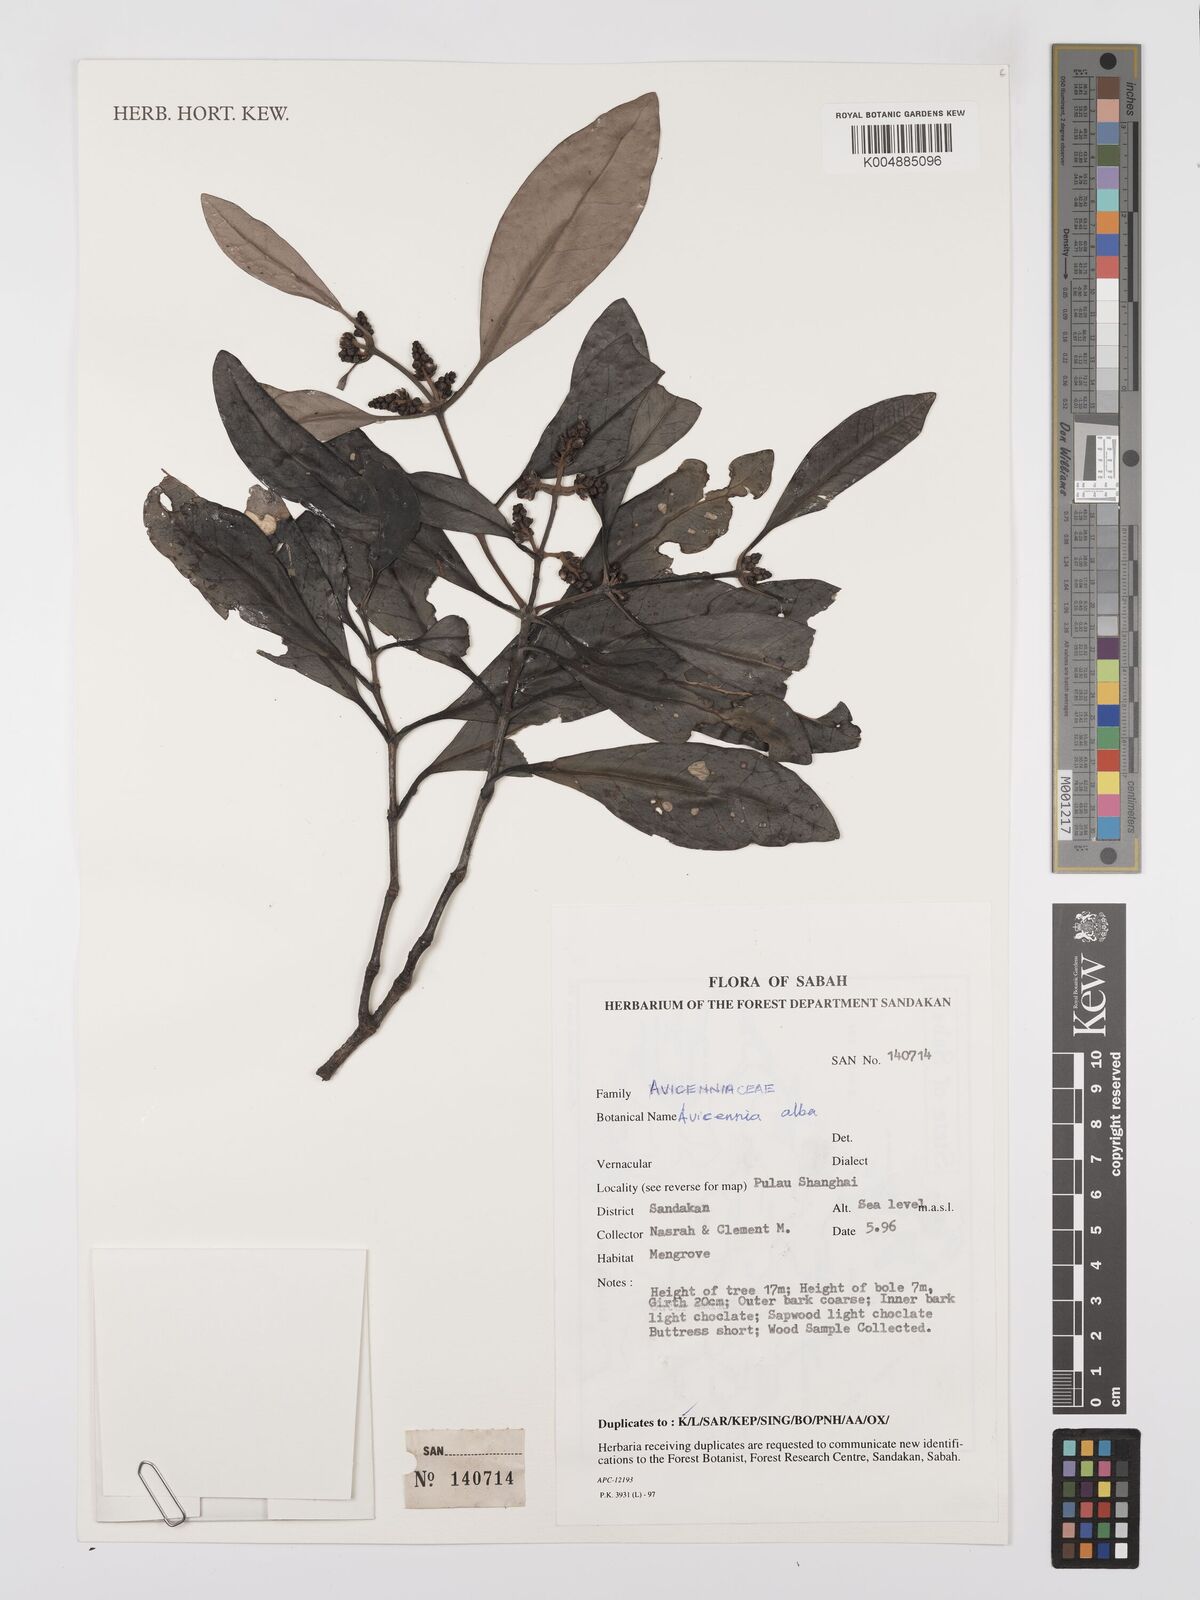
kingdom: Plantae
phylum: Tracheophyta
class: Magnoliopsida
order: Lamiales
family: Acanthaceae
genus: Avicennia
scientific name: Avicennia alba
